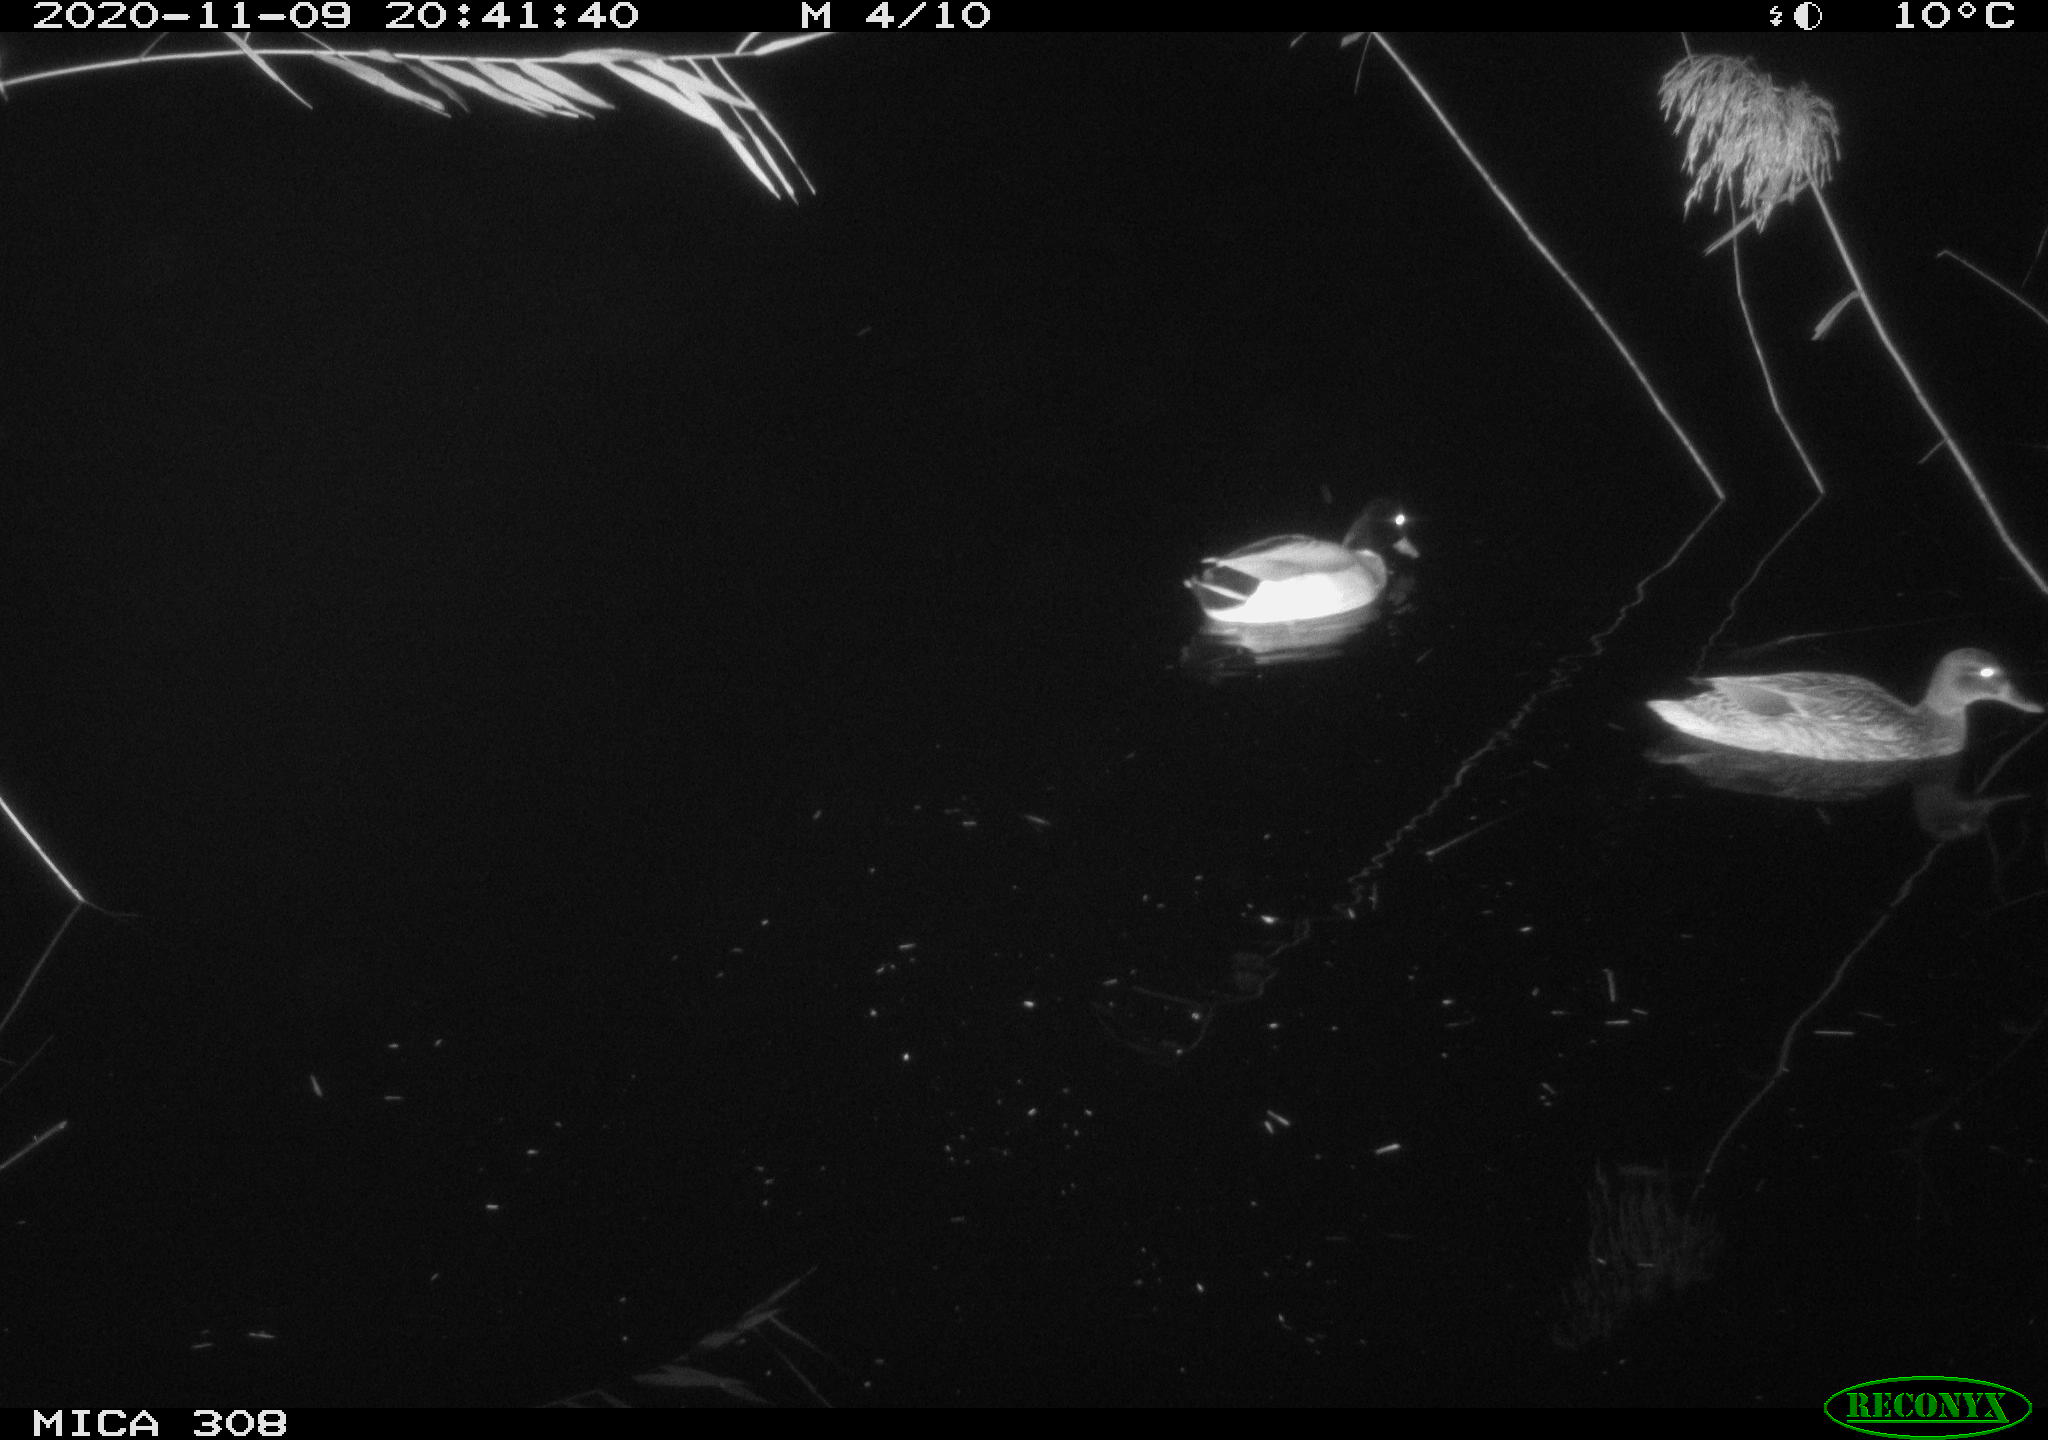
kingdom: Animalia
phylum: Chordata
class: Aves
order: Anseriformes
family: Anatidae
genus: Anas
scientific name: Anas platyrhynchos
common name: Mallard
